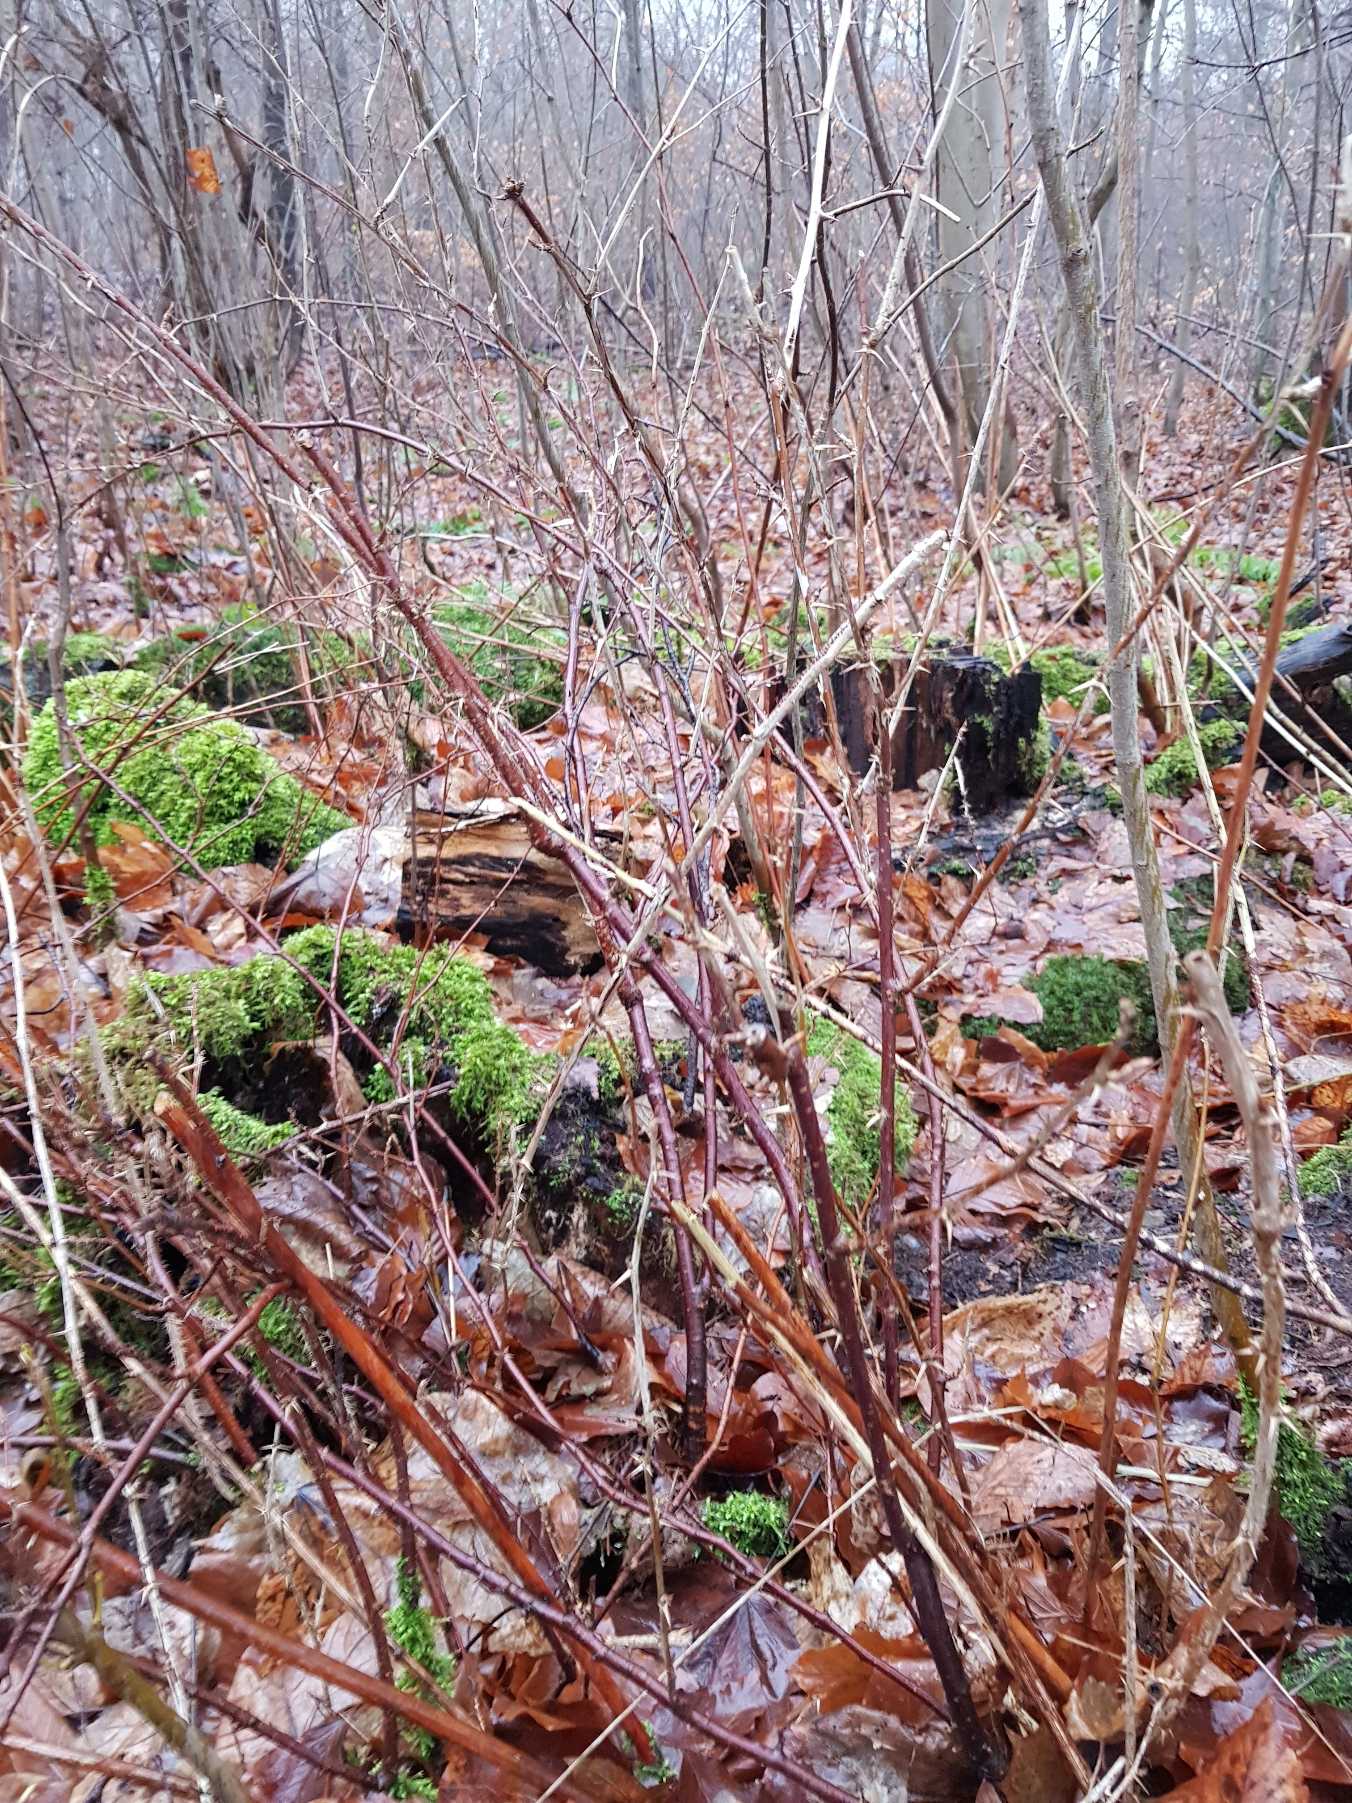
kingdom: Plantae
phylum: Tracheophyta
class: Magnoliopsida
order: Saxifragales
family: Grossulariaceae
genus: Ribes
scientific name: Ribes uva-crispa
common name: Stikkelsbær
